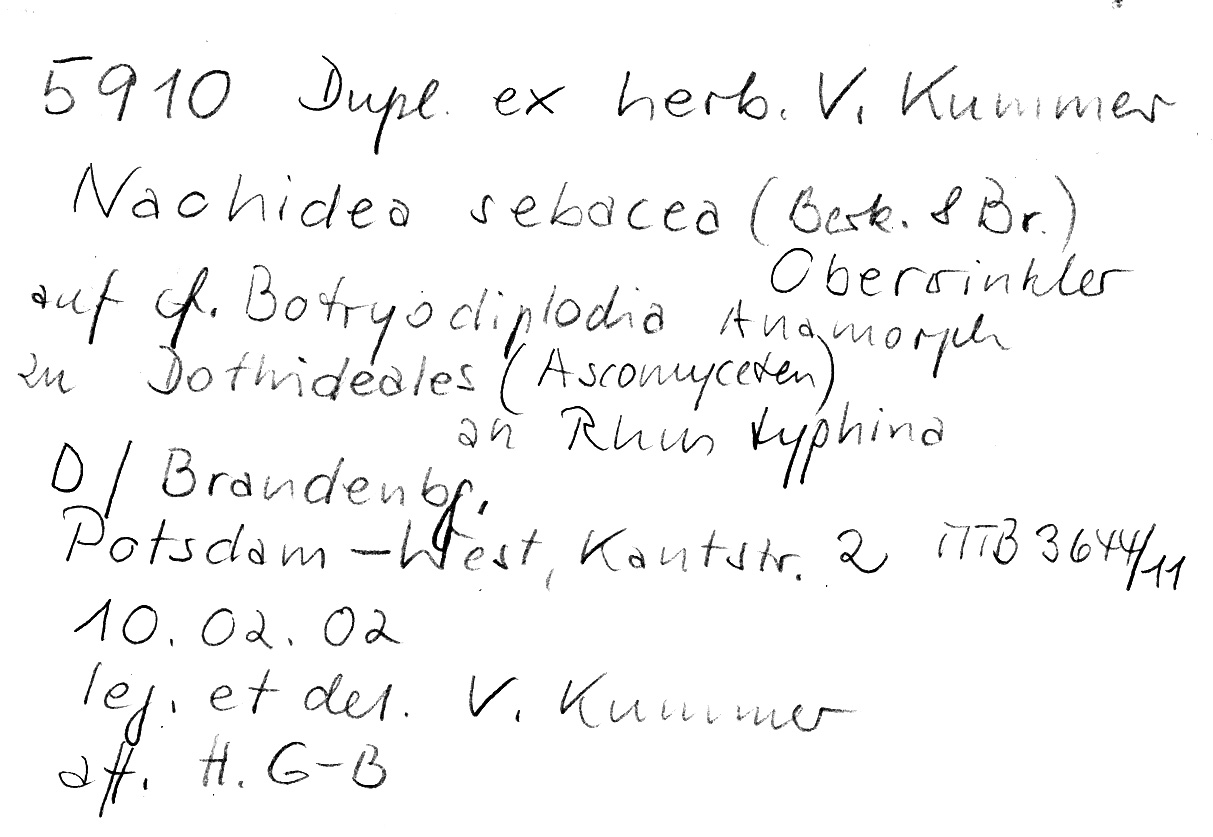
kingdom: Plantae
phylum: Tracheophyta
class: Magnoliopsida
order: Sapindales
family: Anacardiaceae
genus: Rhus
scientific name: Rhus typhina
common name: Staghorn sumac
